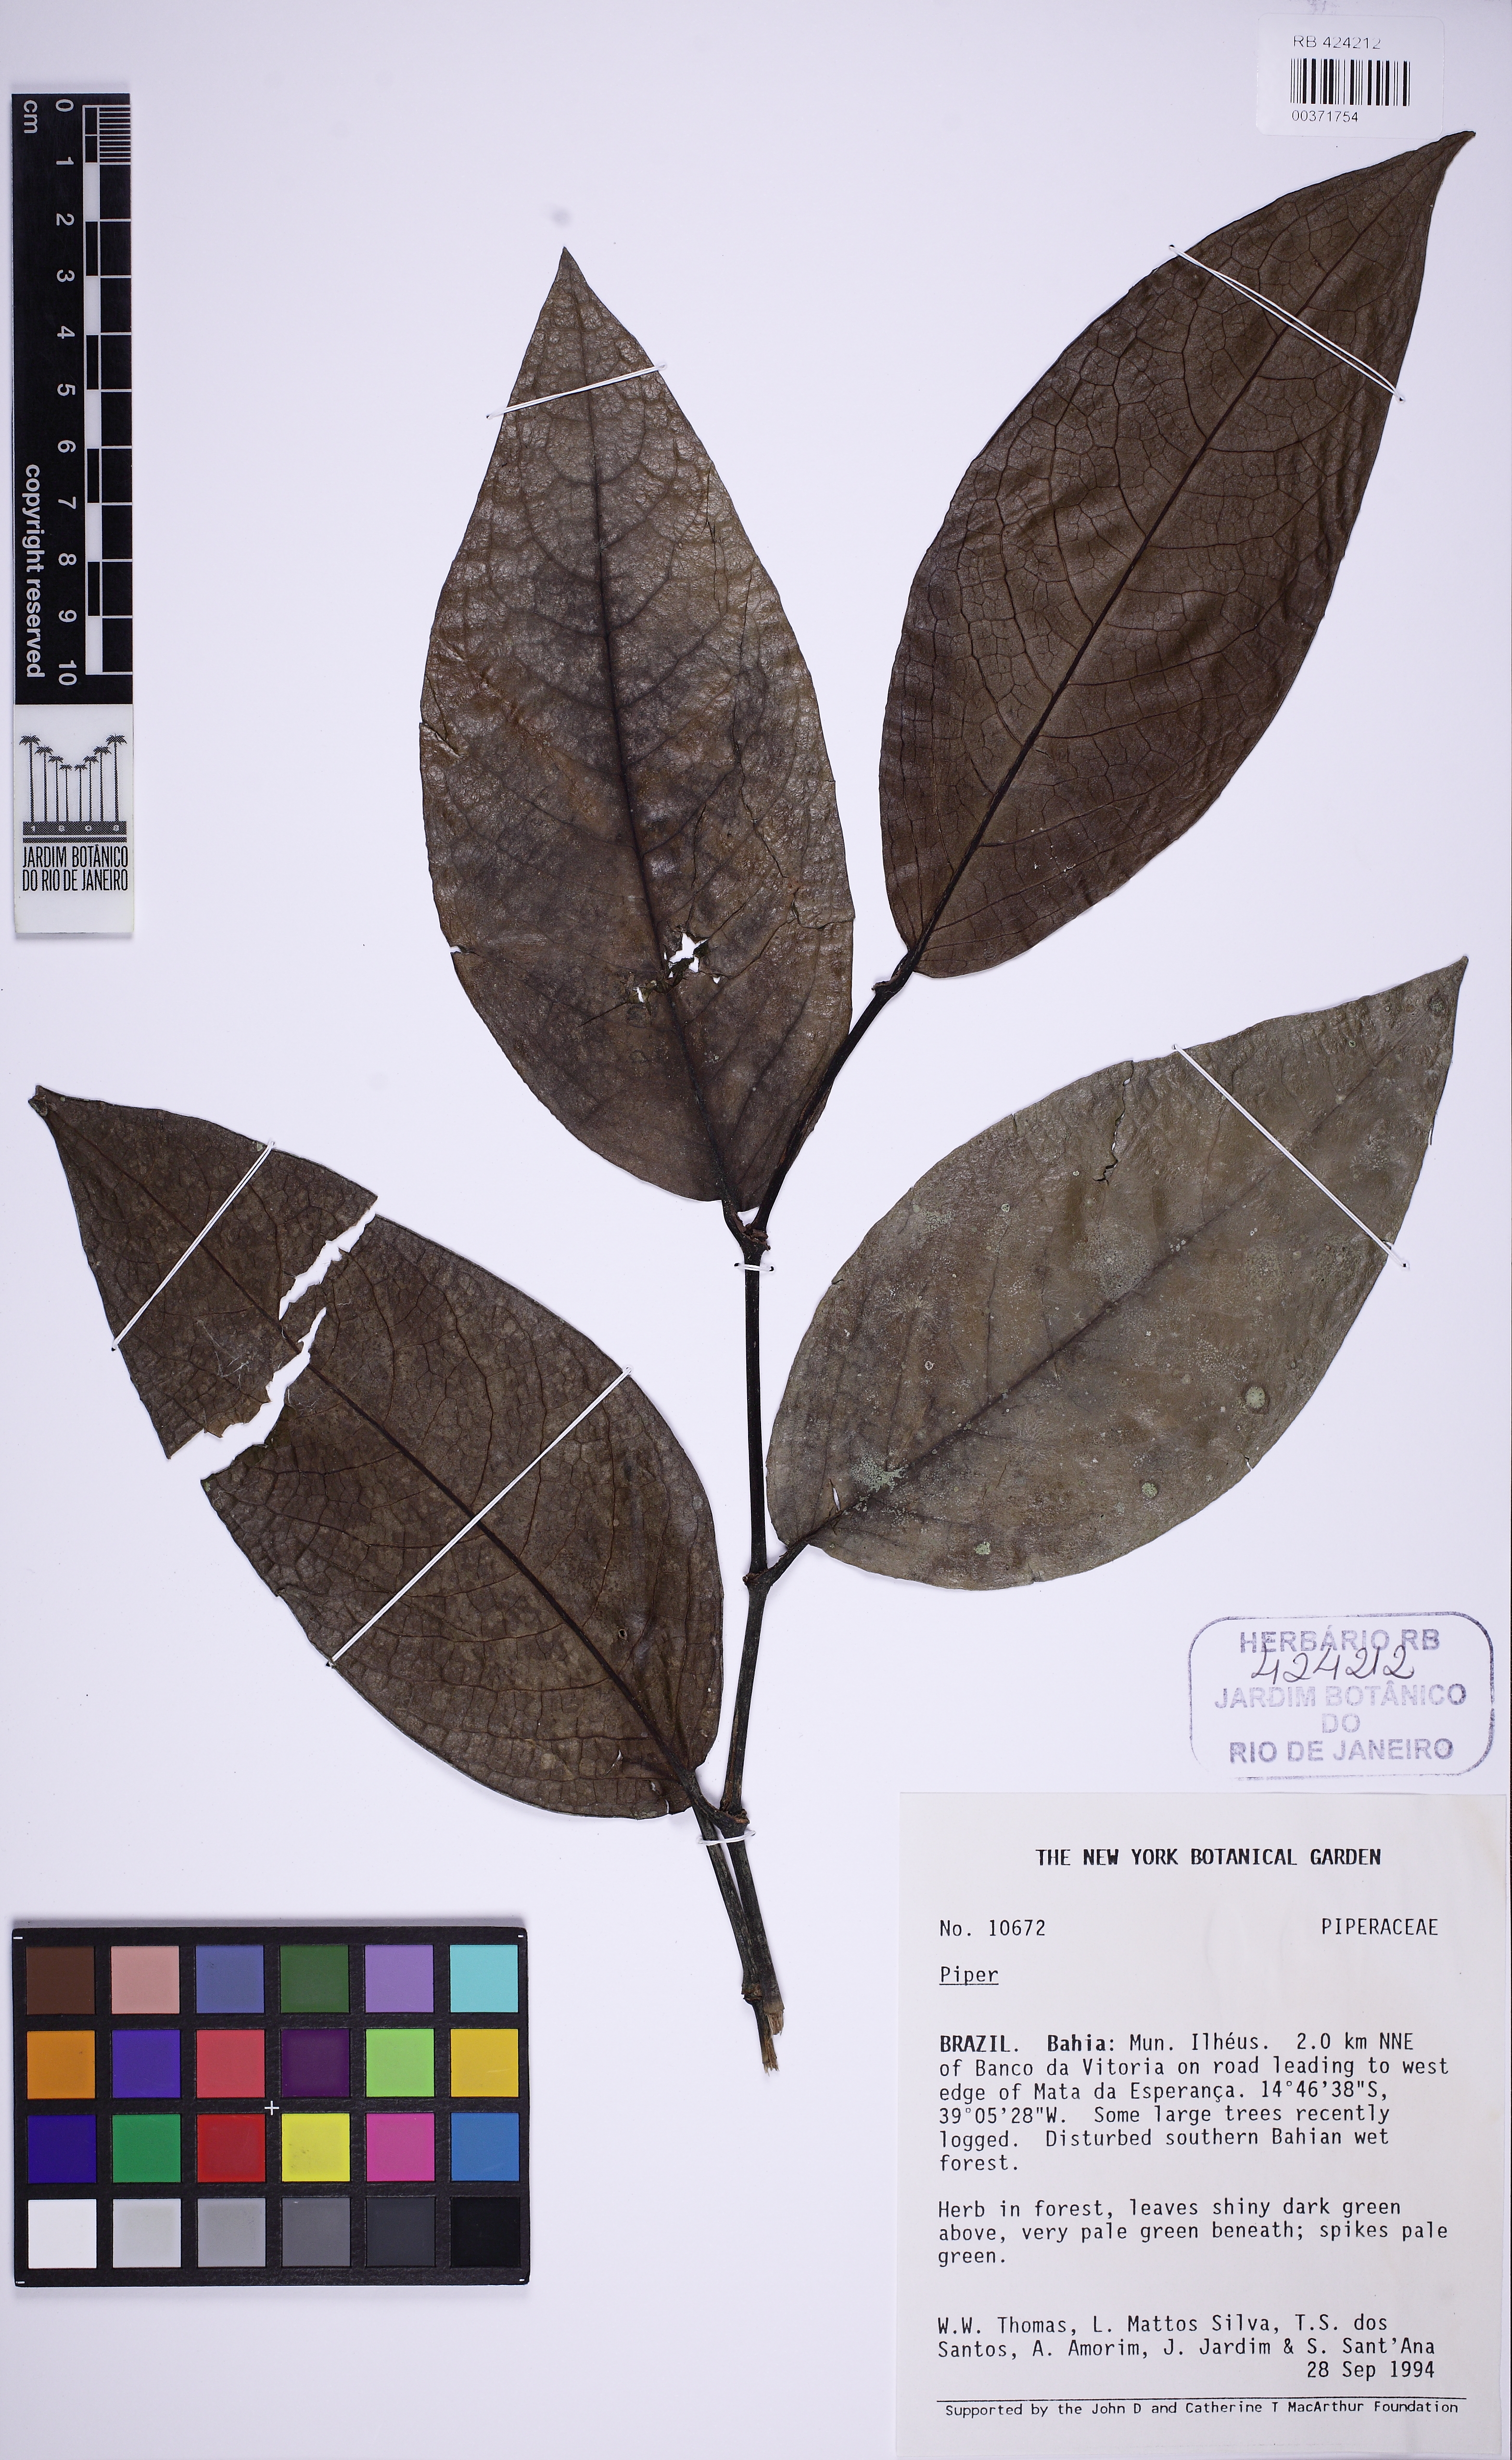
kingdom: Plantae
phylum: Tracheophyta
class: Magnoliopsida
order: Piperales
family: Piperaceae
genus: Piper
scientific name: Piper fluminense
